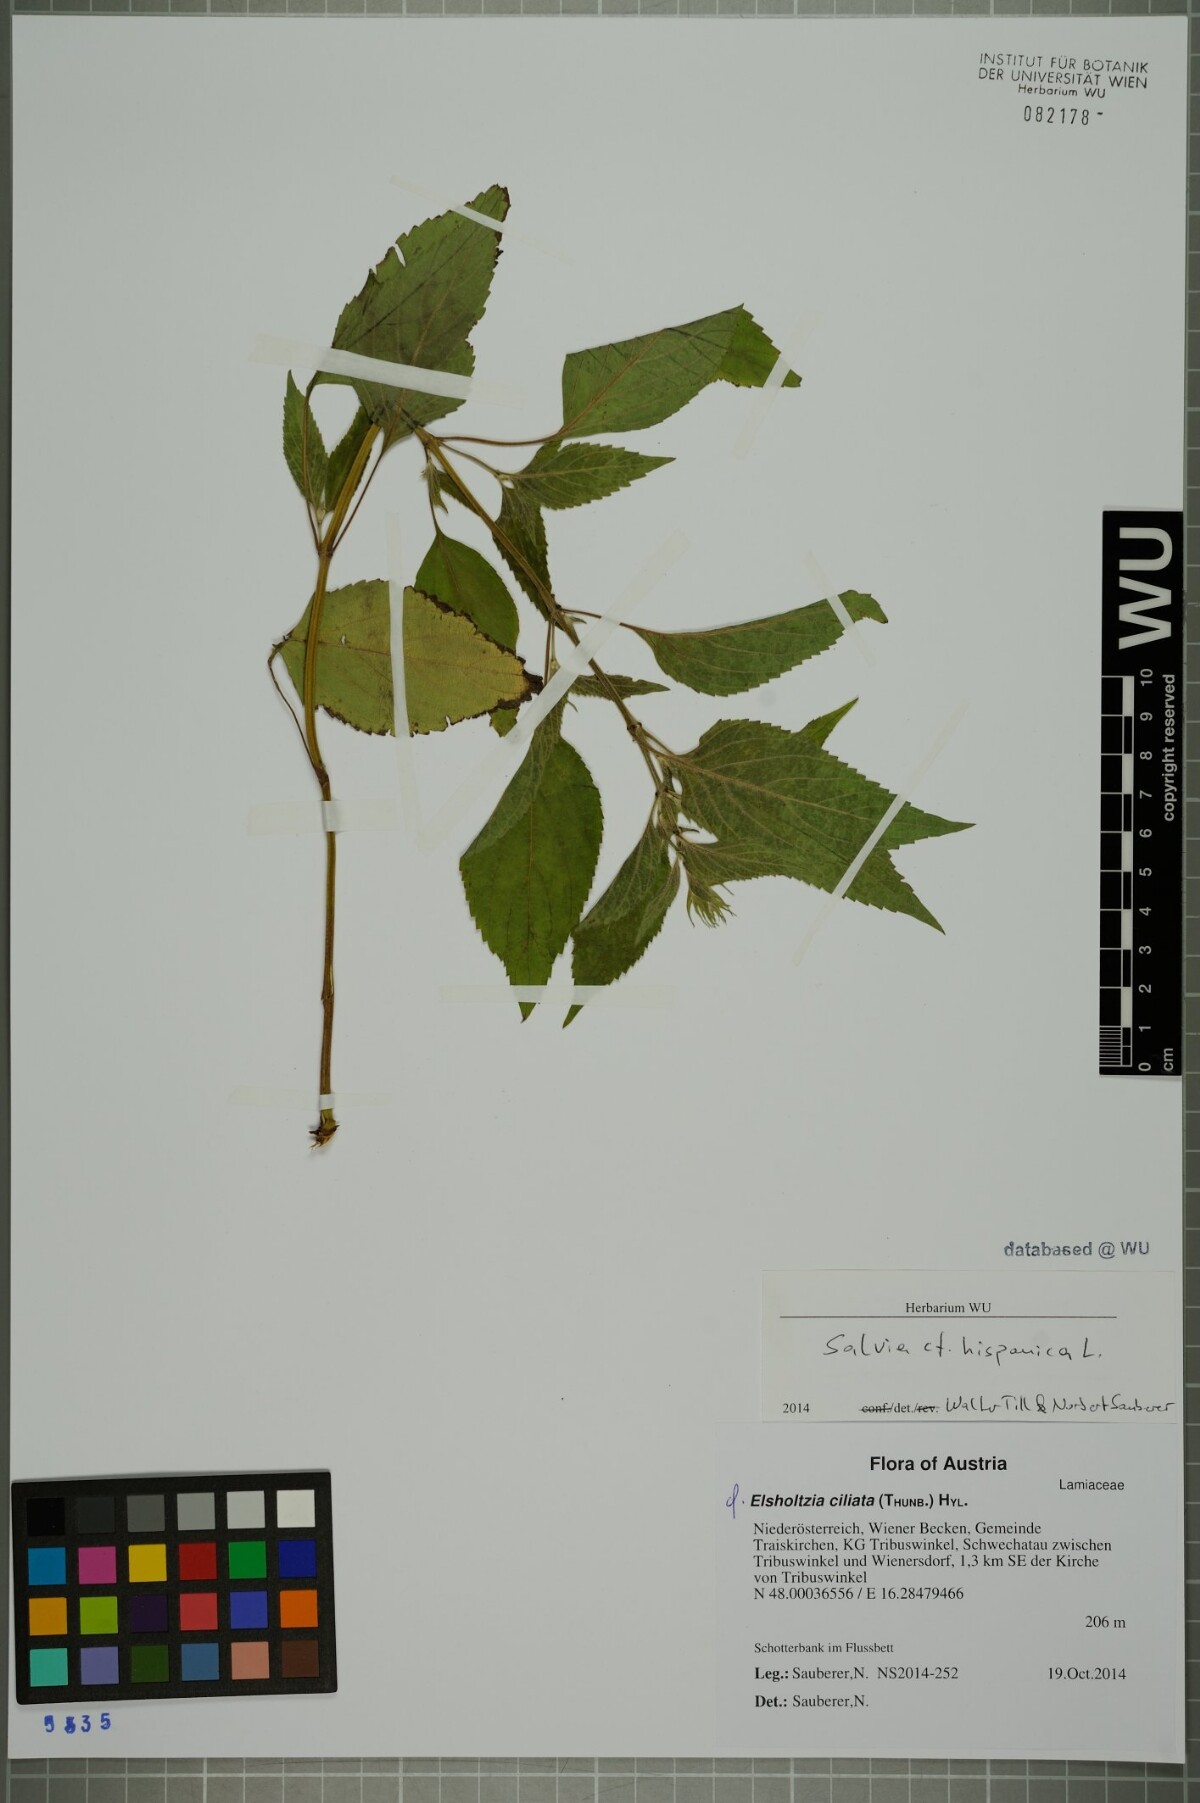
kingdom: Plantae
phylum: Tracheophyta
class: Magnoliopsida
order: Lamiales
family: Lamiaceae
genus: Salvia
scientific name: Salvia hispanica
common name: Chia
